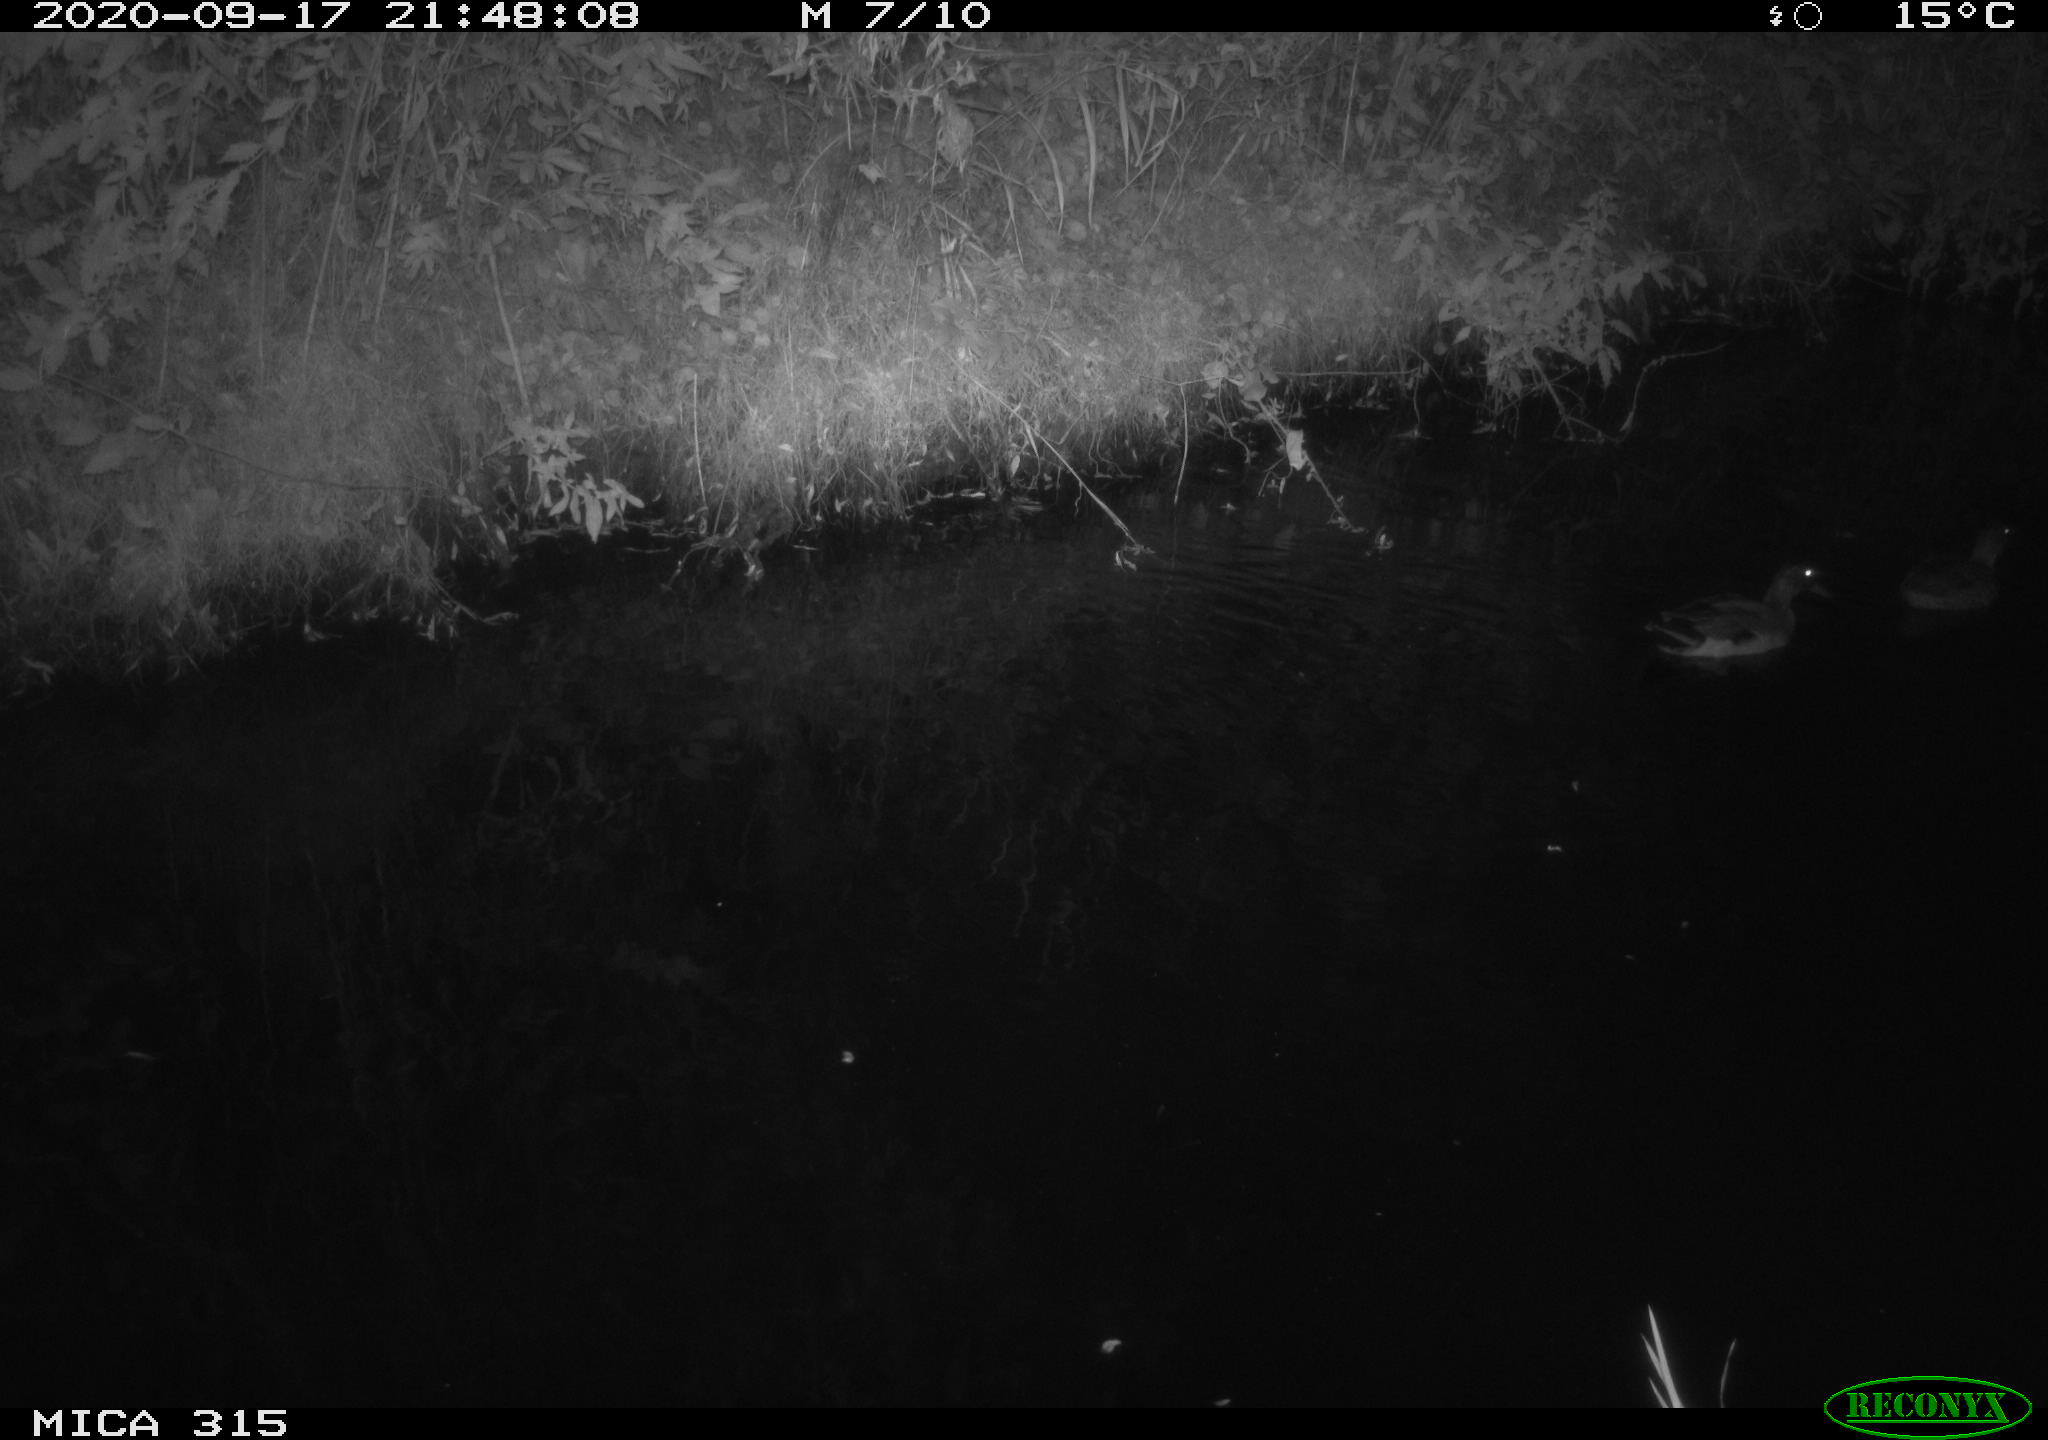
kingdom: Animalia
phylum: Chordata
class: Aves
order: Anseriformes
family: Anatidae
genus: Anas
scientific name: Anas platyrhynchos
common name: Mallard
